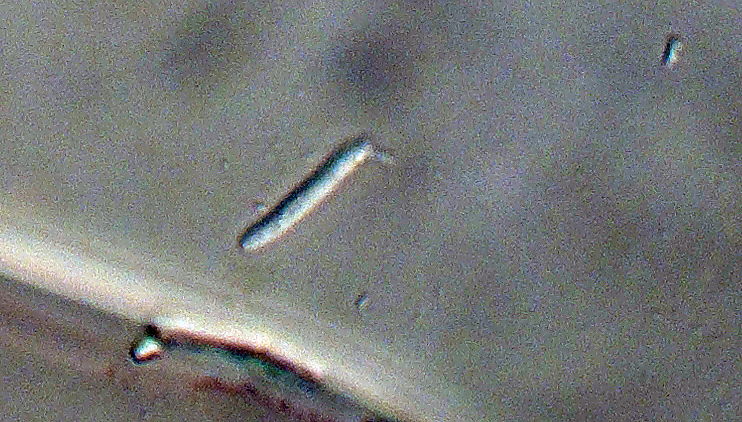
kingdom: Fungi
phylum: Ascomycota
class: Dothideomycetes
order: Mycosphaerellales
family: Mycosphaerellaceae
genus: Ramularia
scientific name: Ramularia taraxaci
